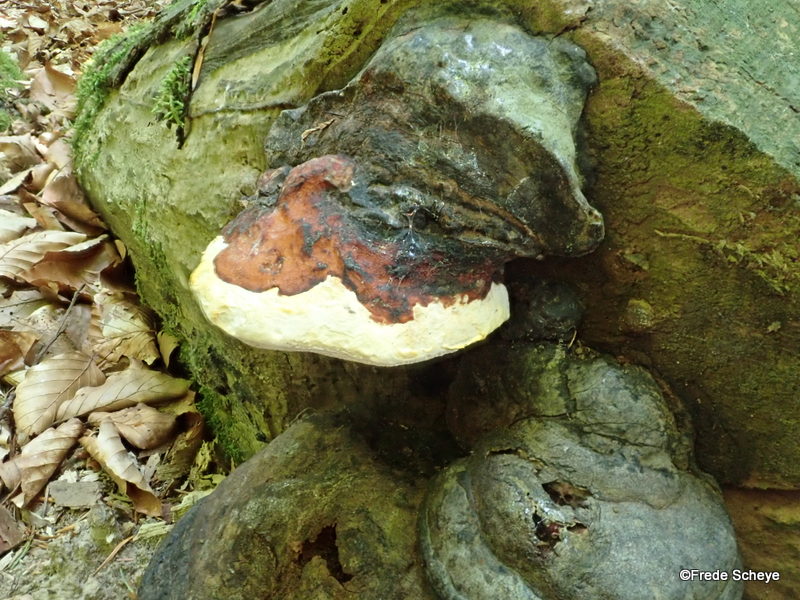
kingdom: Fungi
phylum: Basidiomycota
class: Agaricomycetes
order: Polyporales
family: Fomitopsidaceae
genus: Fomitopsis
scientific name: Fomitopsis pinicola
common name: randbæltet hovporesvamp
